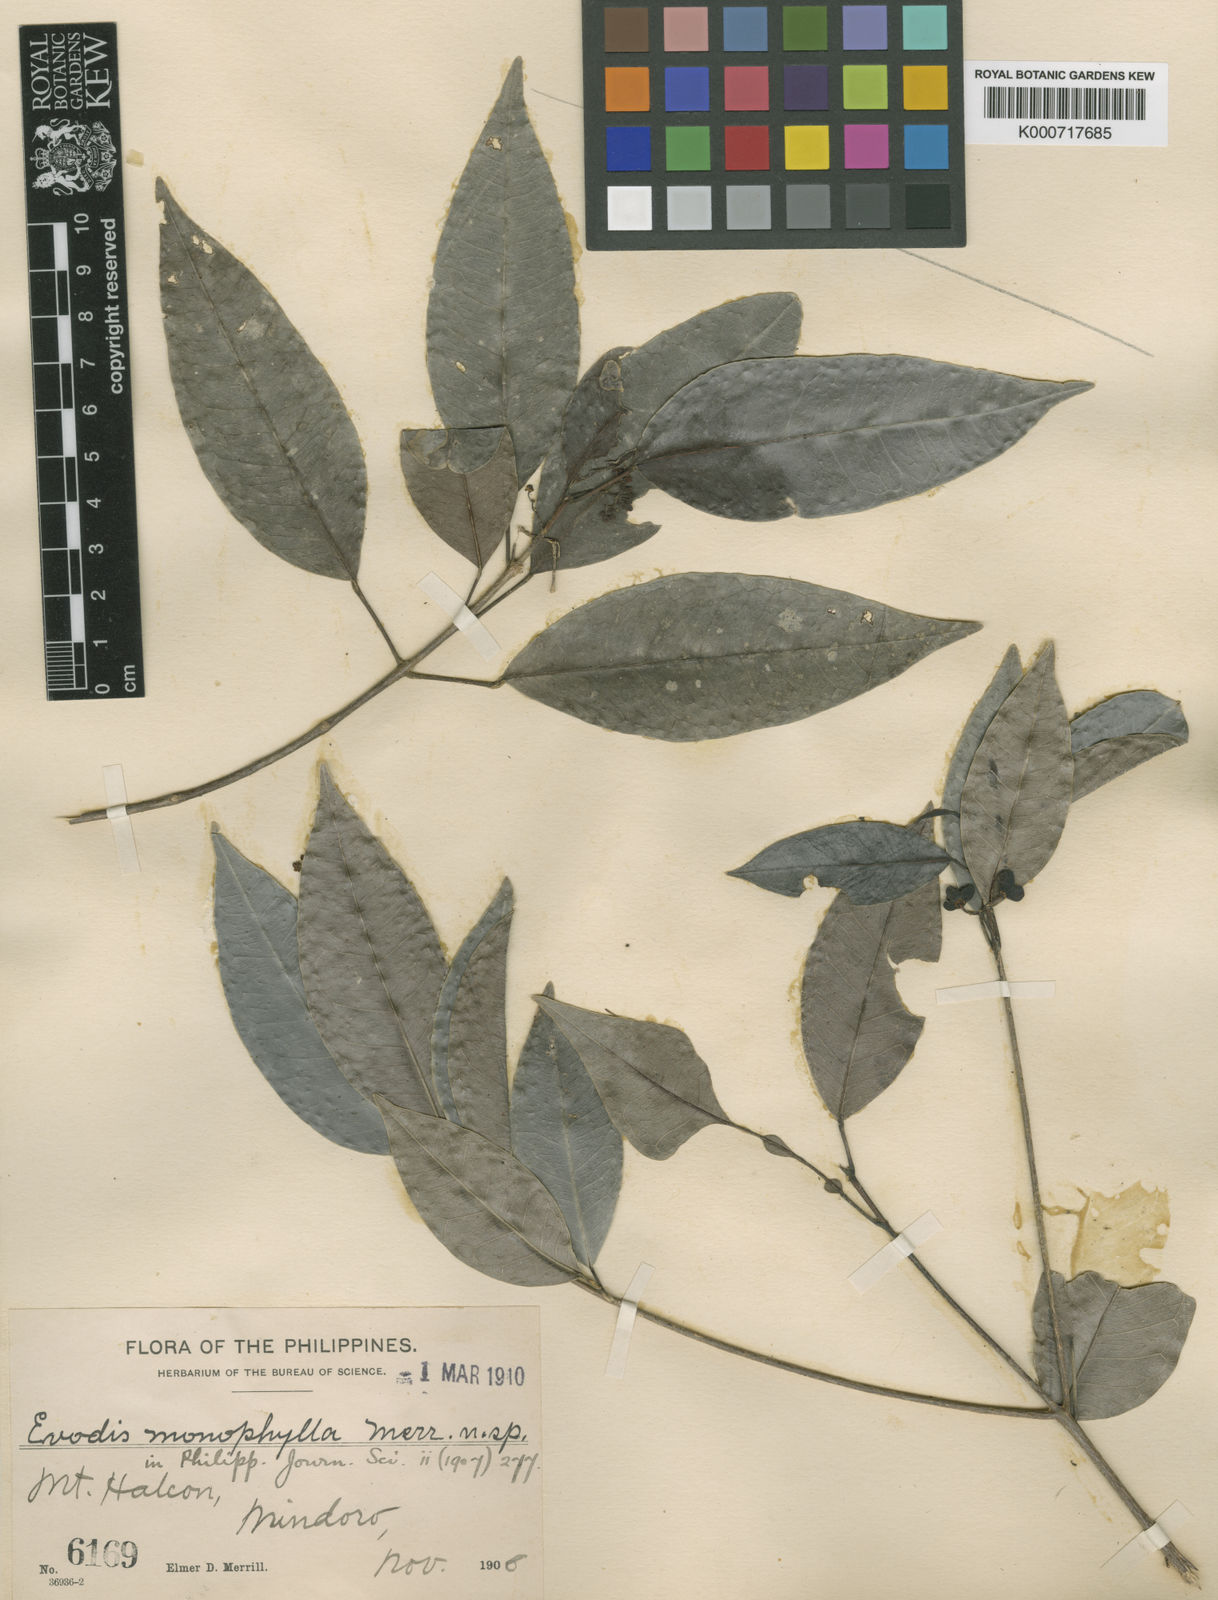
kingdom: Plantae
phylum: Tracheophyta
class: Magnoliopsida
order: Sapindales
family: Rutaceae
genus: Melicope
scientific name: Melicope mindorensis
